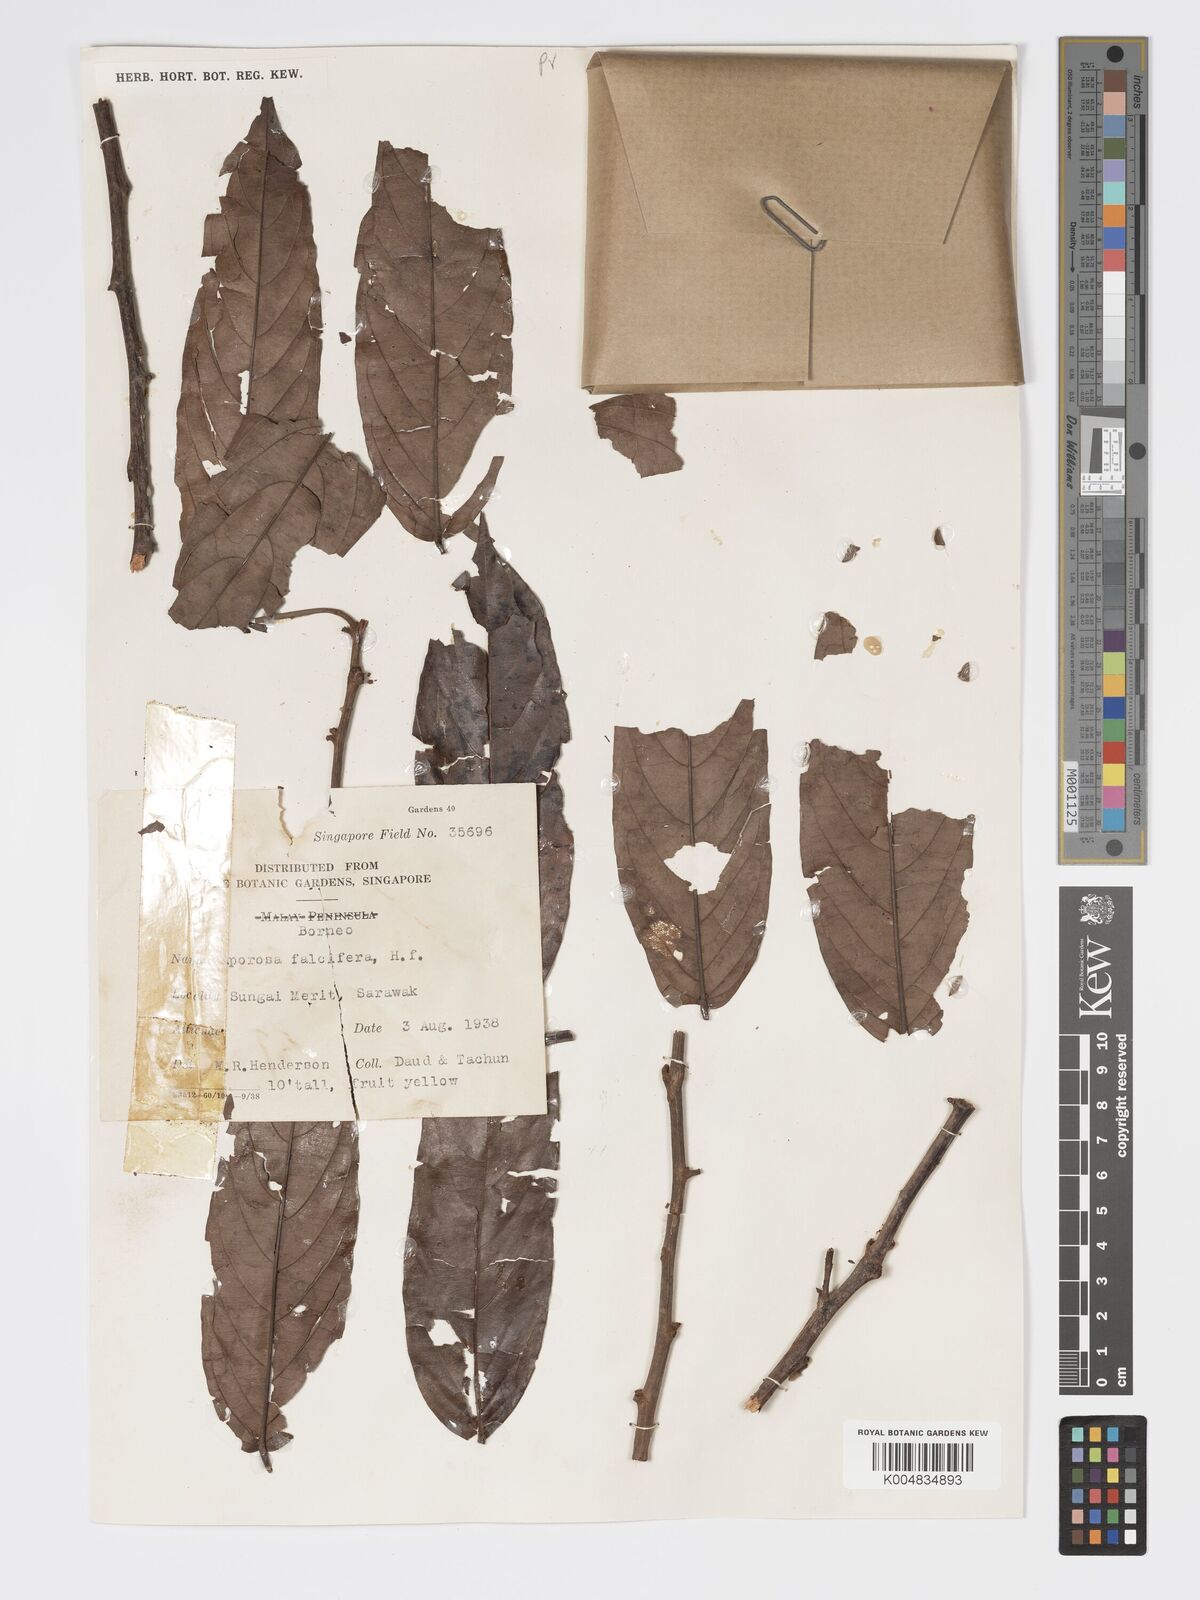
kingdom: Plantae
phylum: Tracheophyta
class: Magnoliopsida
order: Malpighiales
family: Phyllanthaceae
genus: Aporosa
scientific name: Aporosa falcifera
